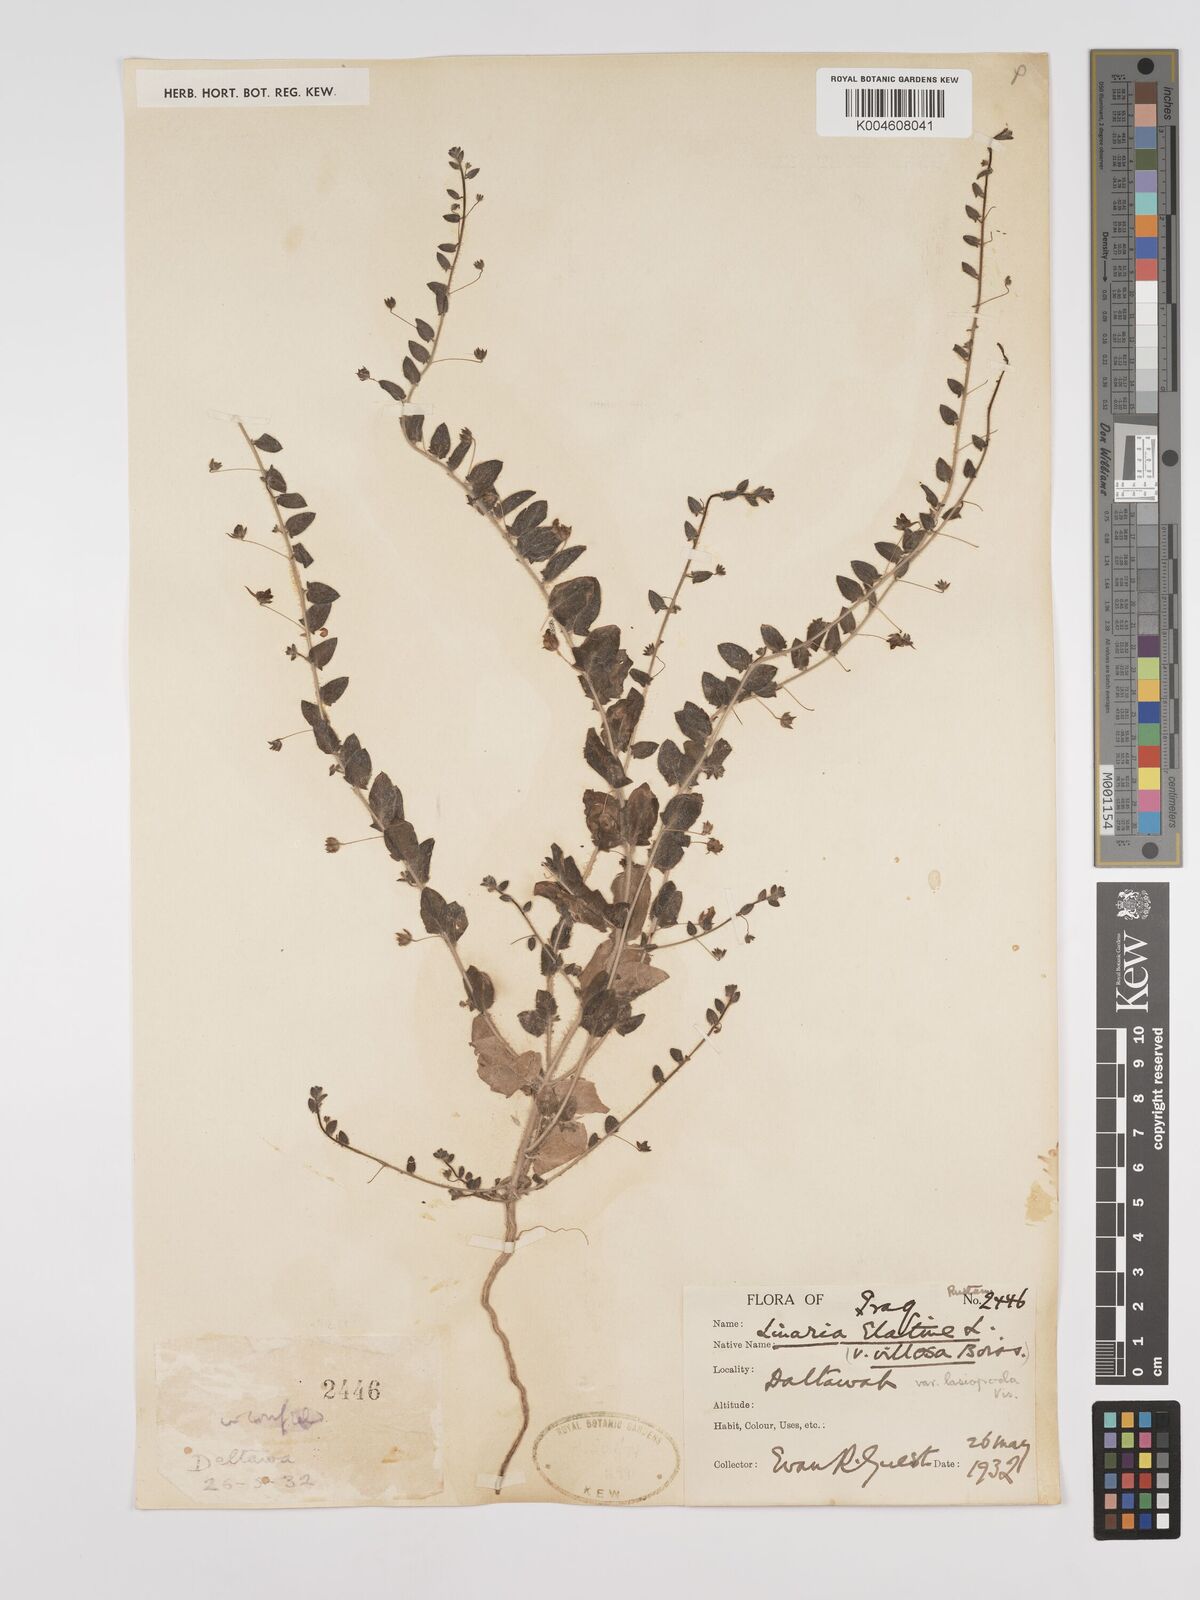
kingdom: Plantae
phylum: Tracheophyta
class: Magnoliopsida
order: Lamiales
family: Plantaginaceae
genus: Kickxia
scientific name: Kickxia elatine
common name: Sharp-leaved fluellen
